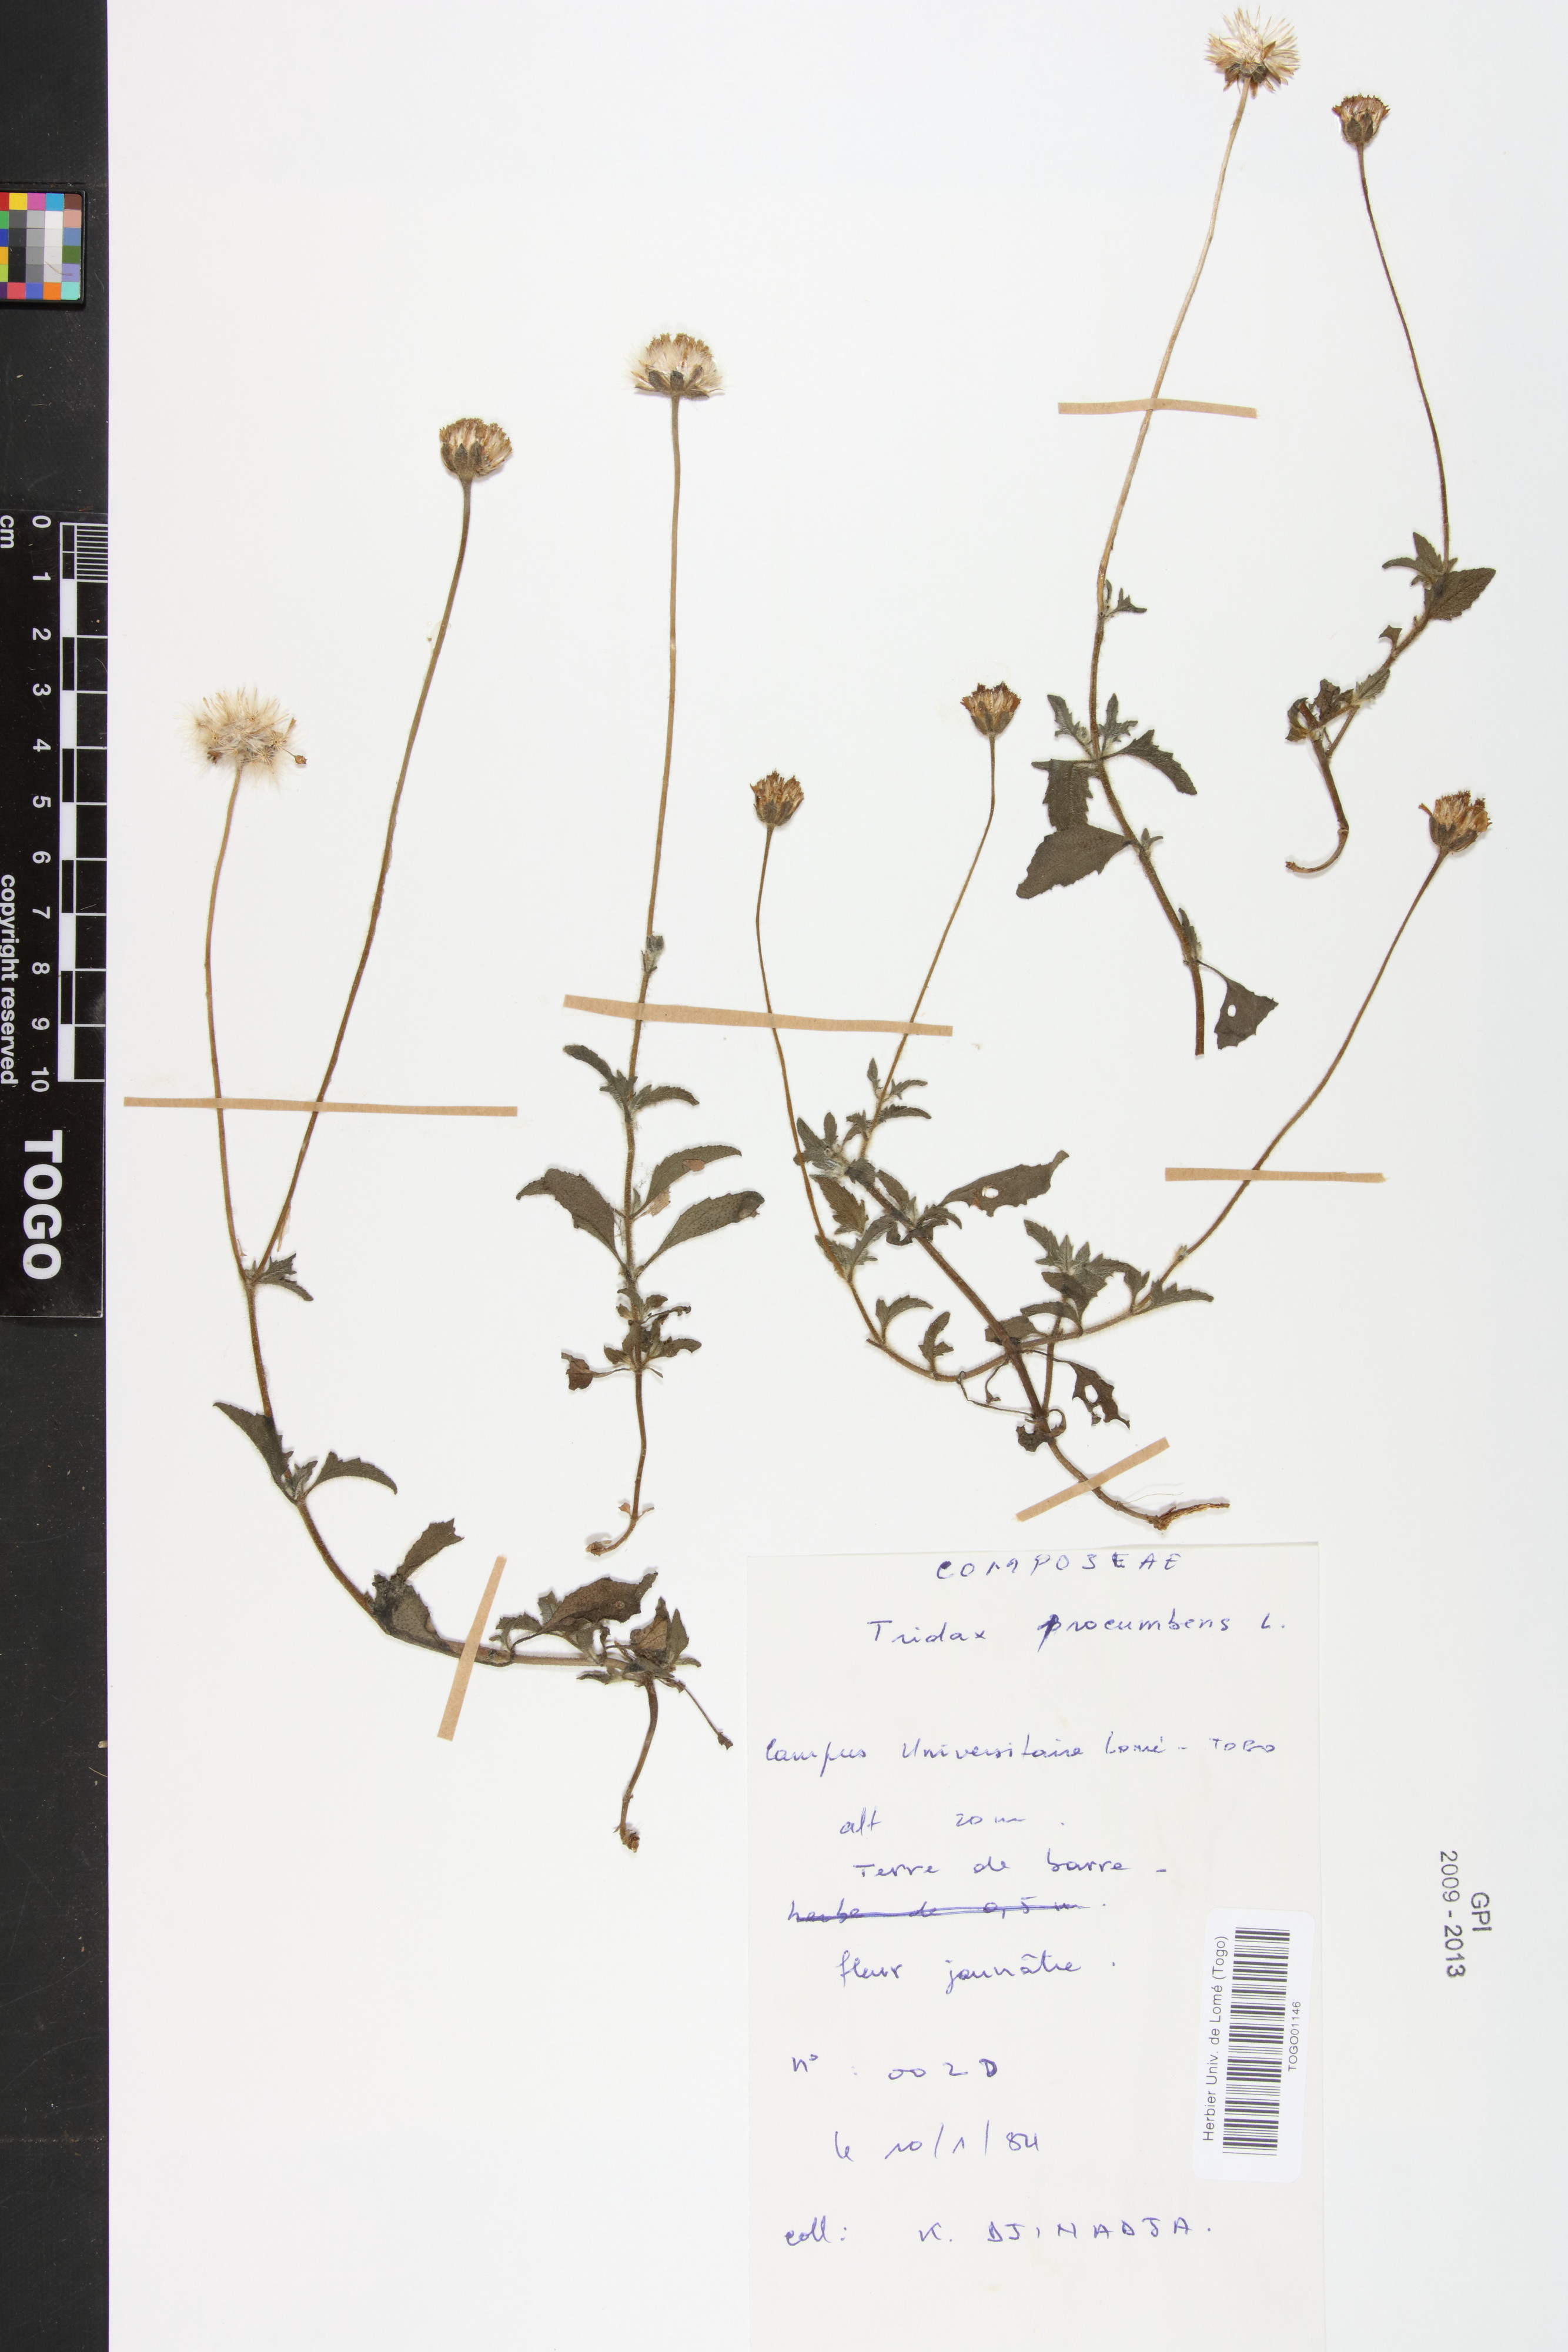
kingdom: Plantae
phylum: Tracheophyta
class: Magnoliopsida
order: Asterales
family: Asteraceae
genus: Tridax
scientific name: Tridax procumbens
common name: Coatbuttons
